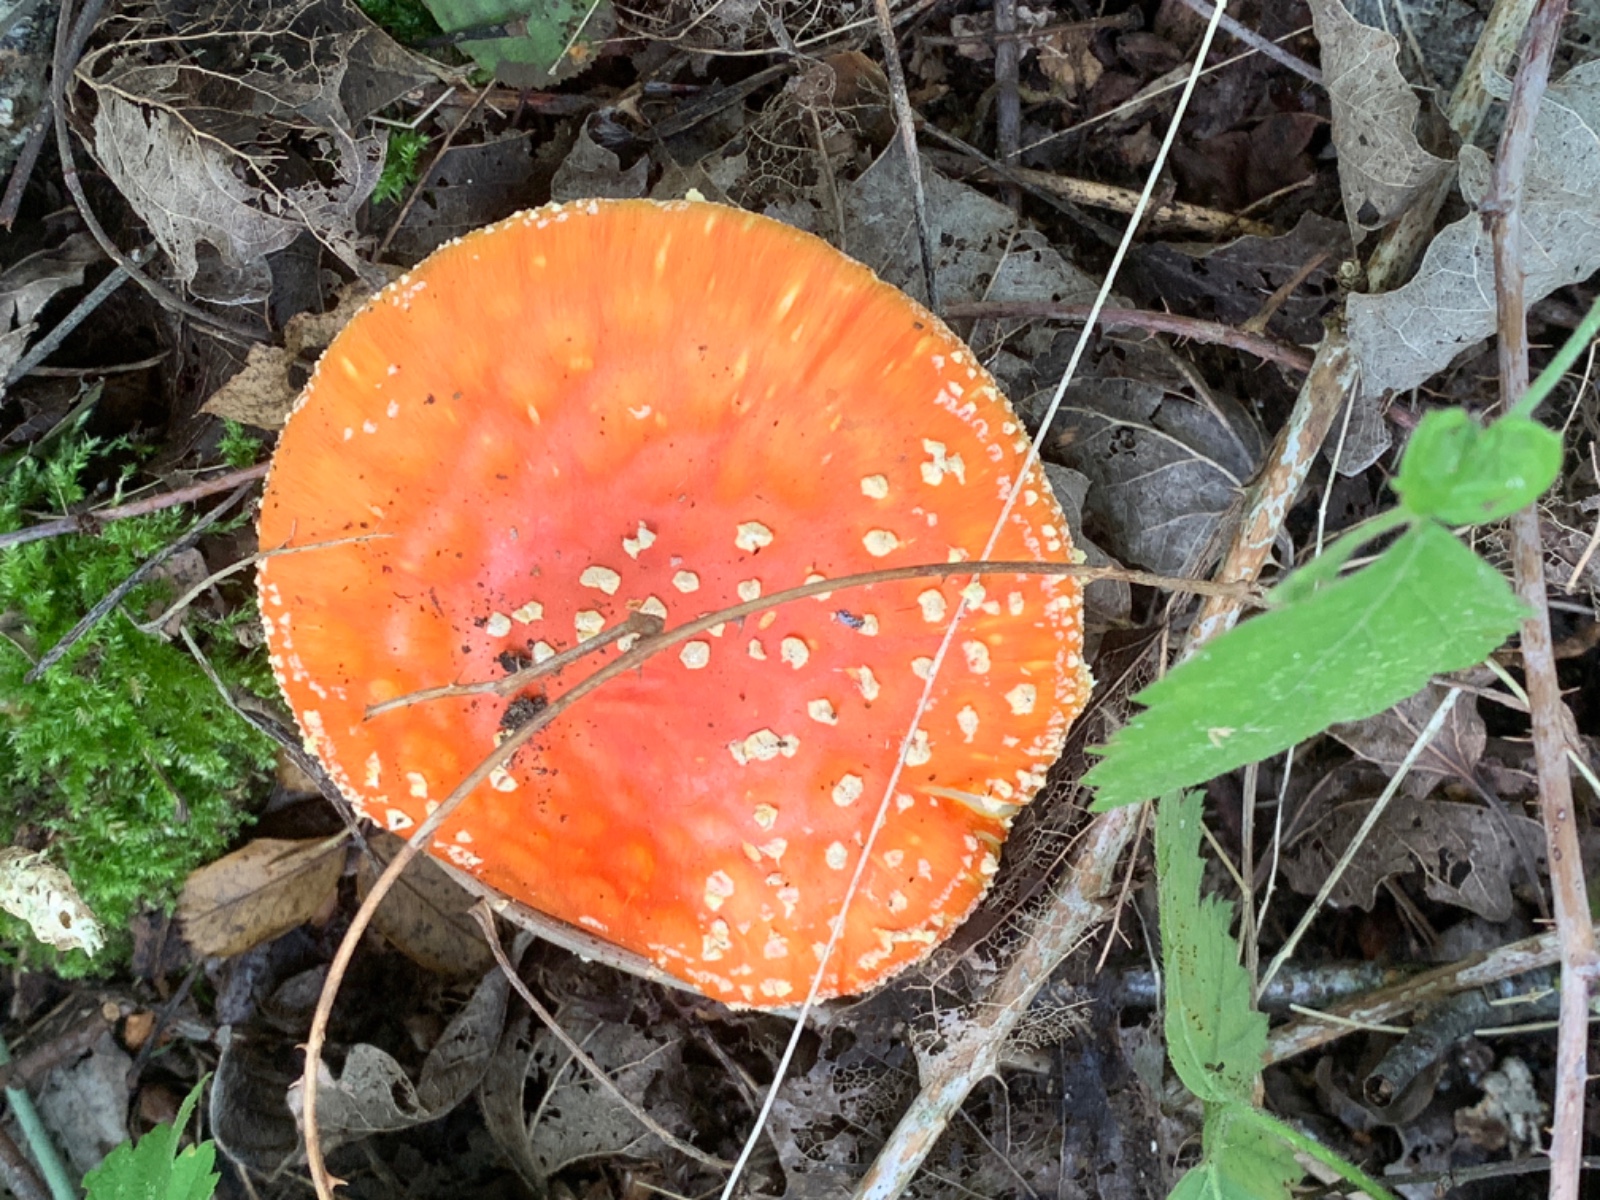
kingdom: Fungi
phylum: Basidiomycota
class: Agaricomycetes
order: Agaricales
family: Amanitaceae
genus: Amanita
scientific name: Amanita muscaria
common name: rød fluesvamp
